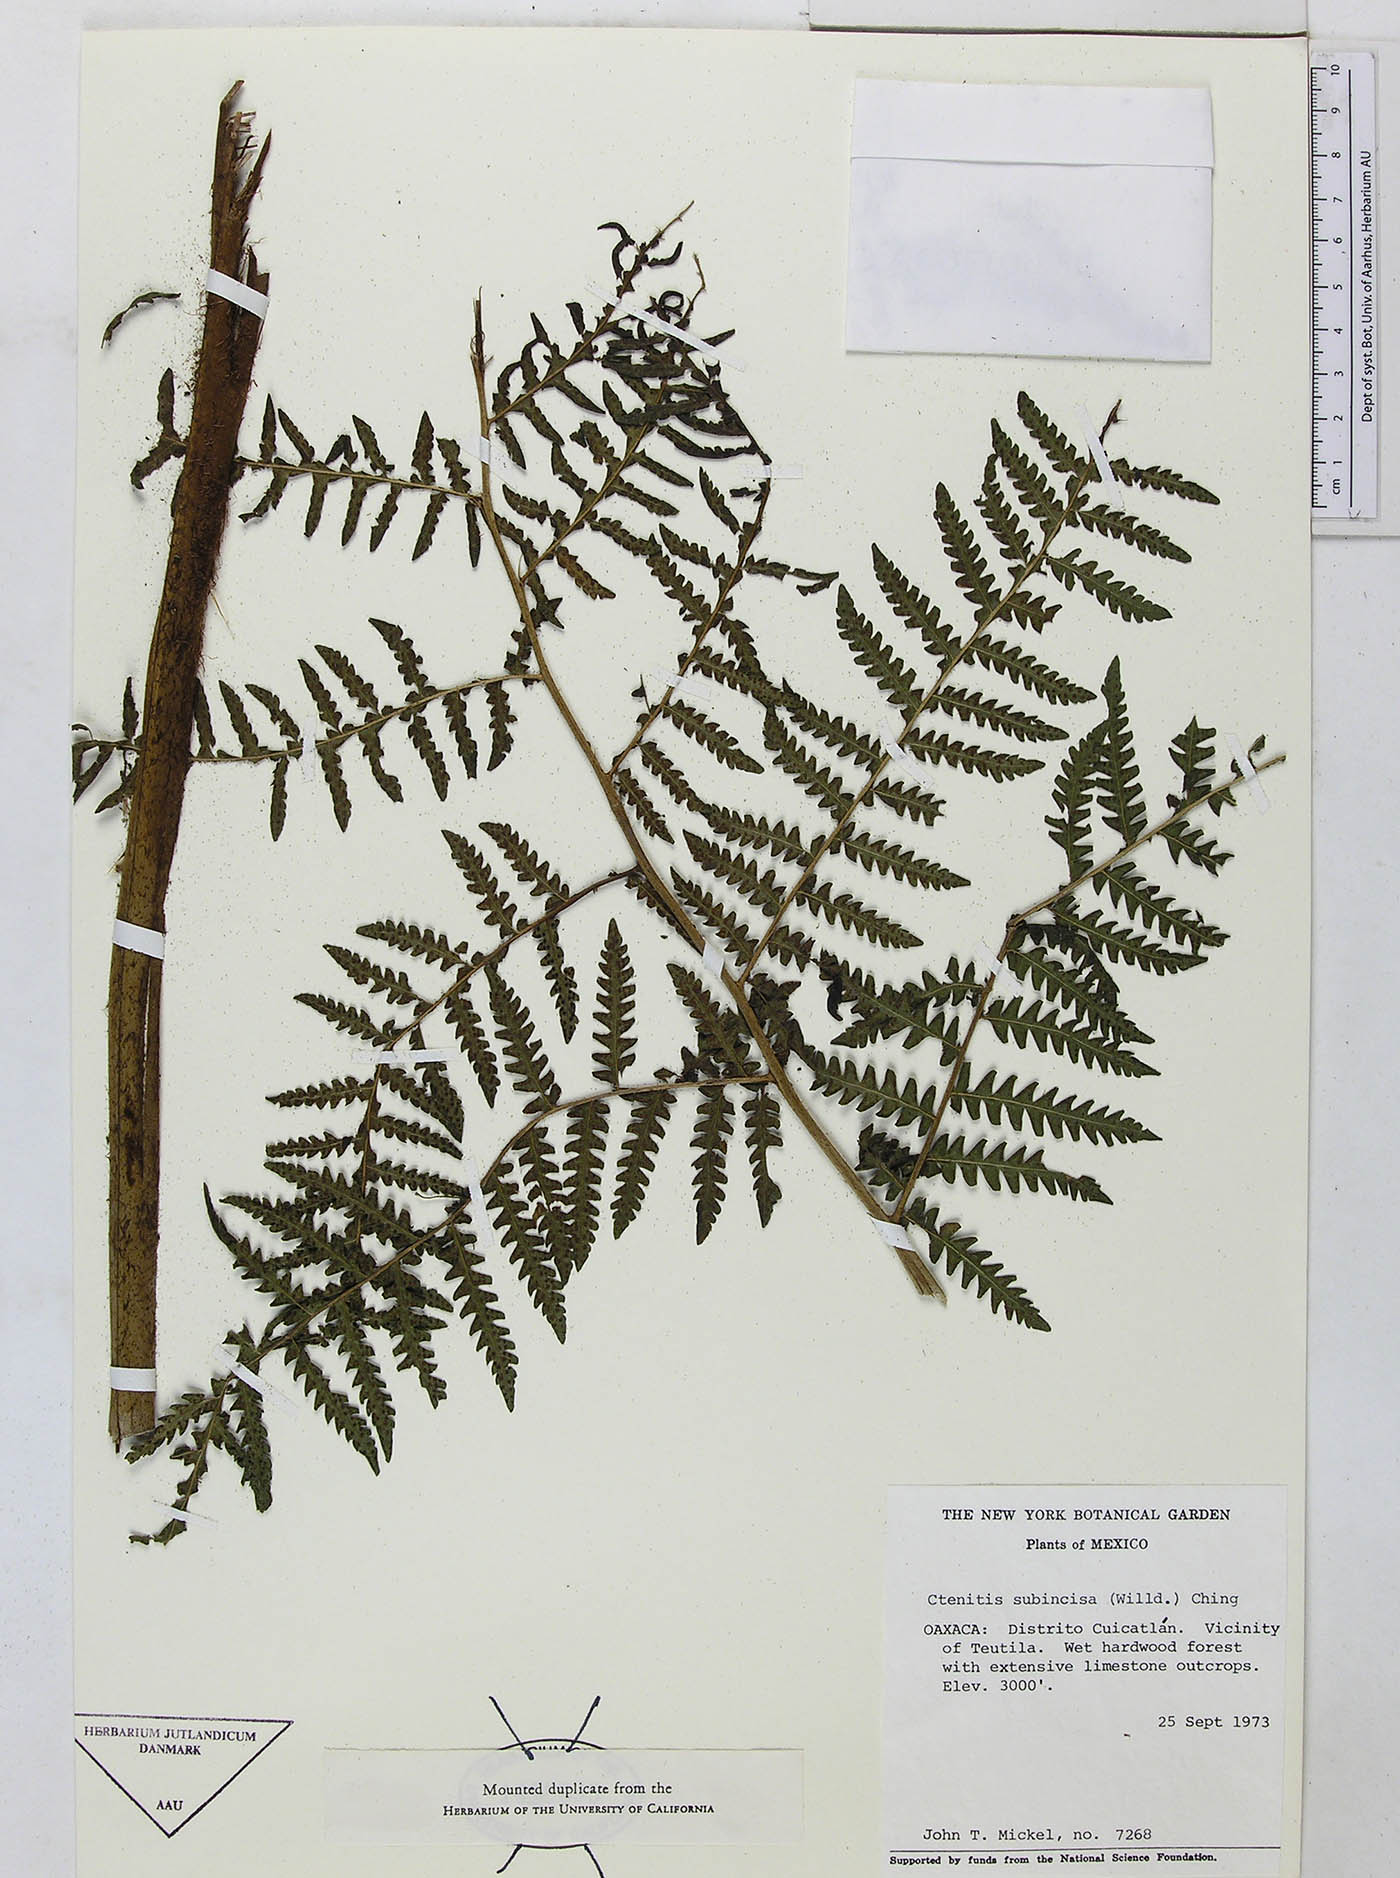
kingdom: Plantae
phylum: Tracheophyta
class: Polypodiopsida
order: Polypodiales
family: Dryopteridaceae
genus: Megalastrum
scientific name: Megalastrum galeottii
